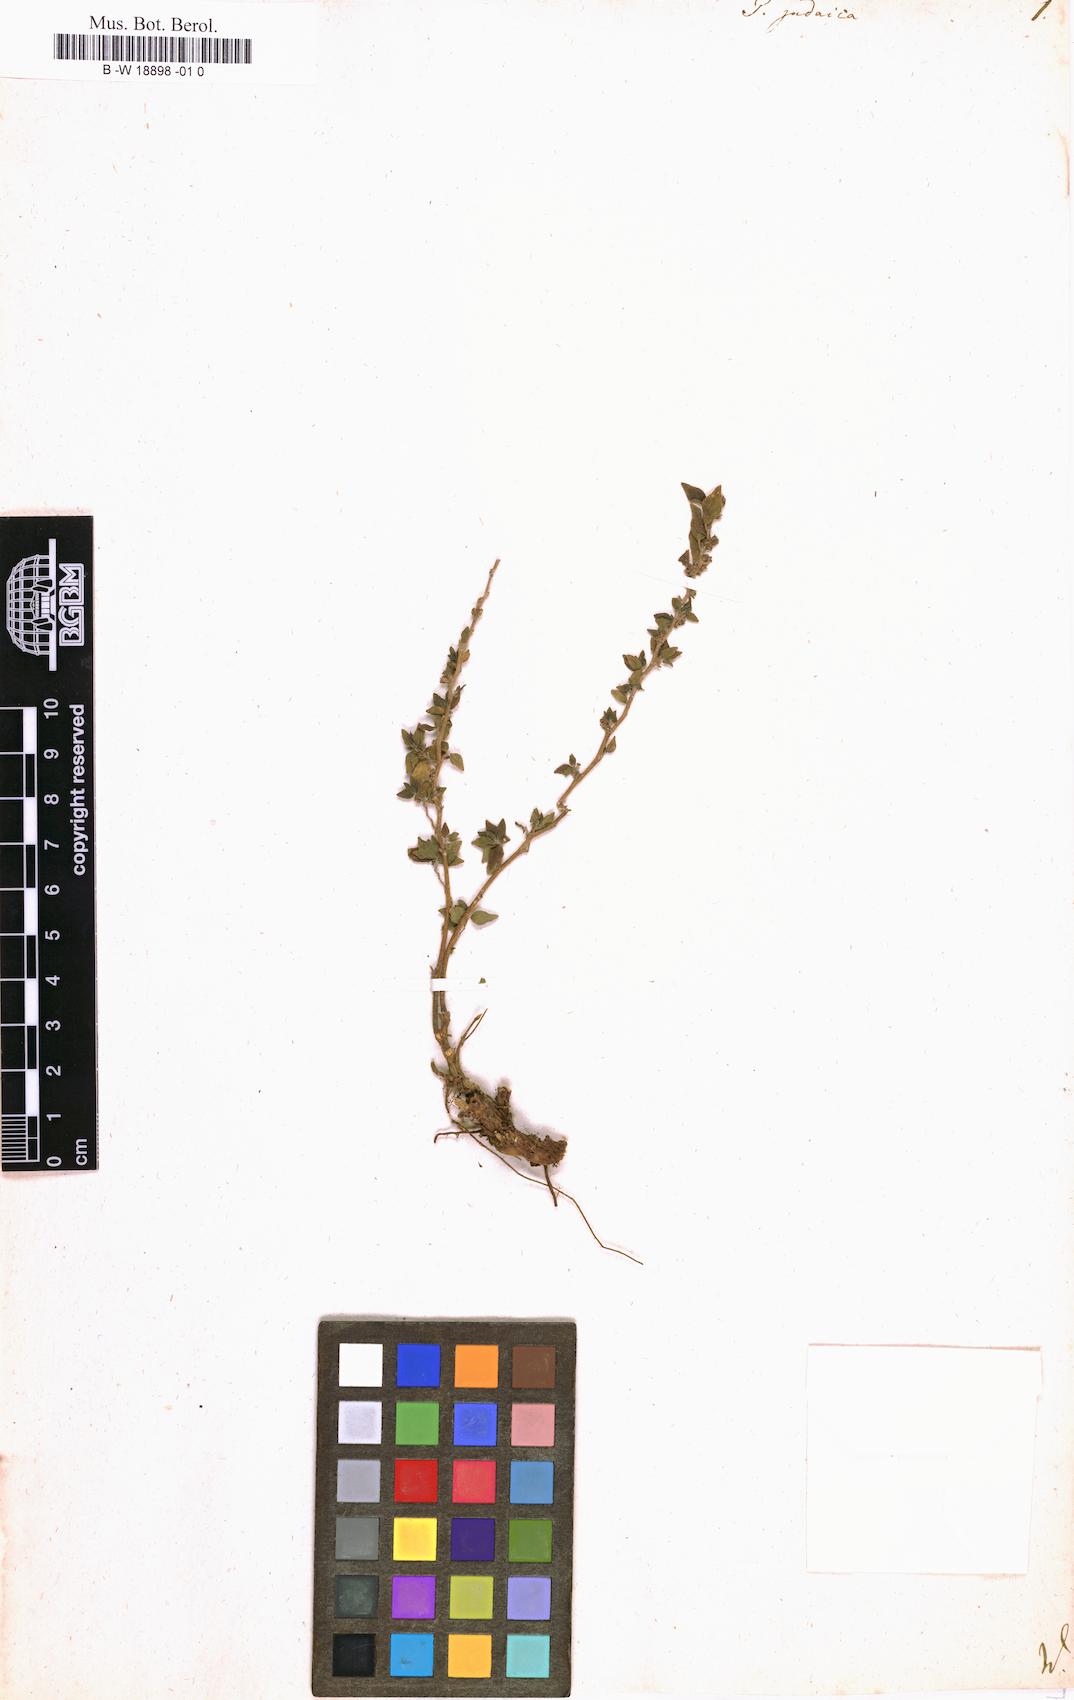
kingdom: Plantae
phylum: Tracheophyta
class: Magnoliopsida
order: Rosales
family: Urticaceae
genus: Parietaria
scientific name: Parietaria judaica
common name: Pellitory-of-the-wall
